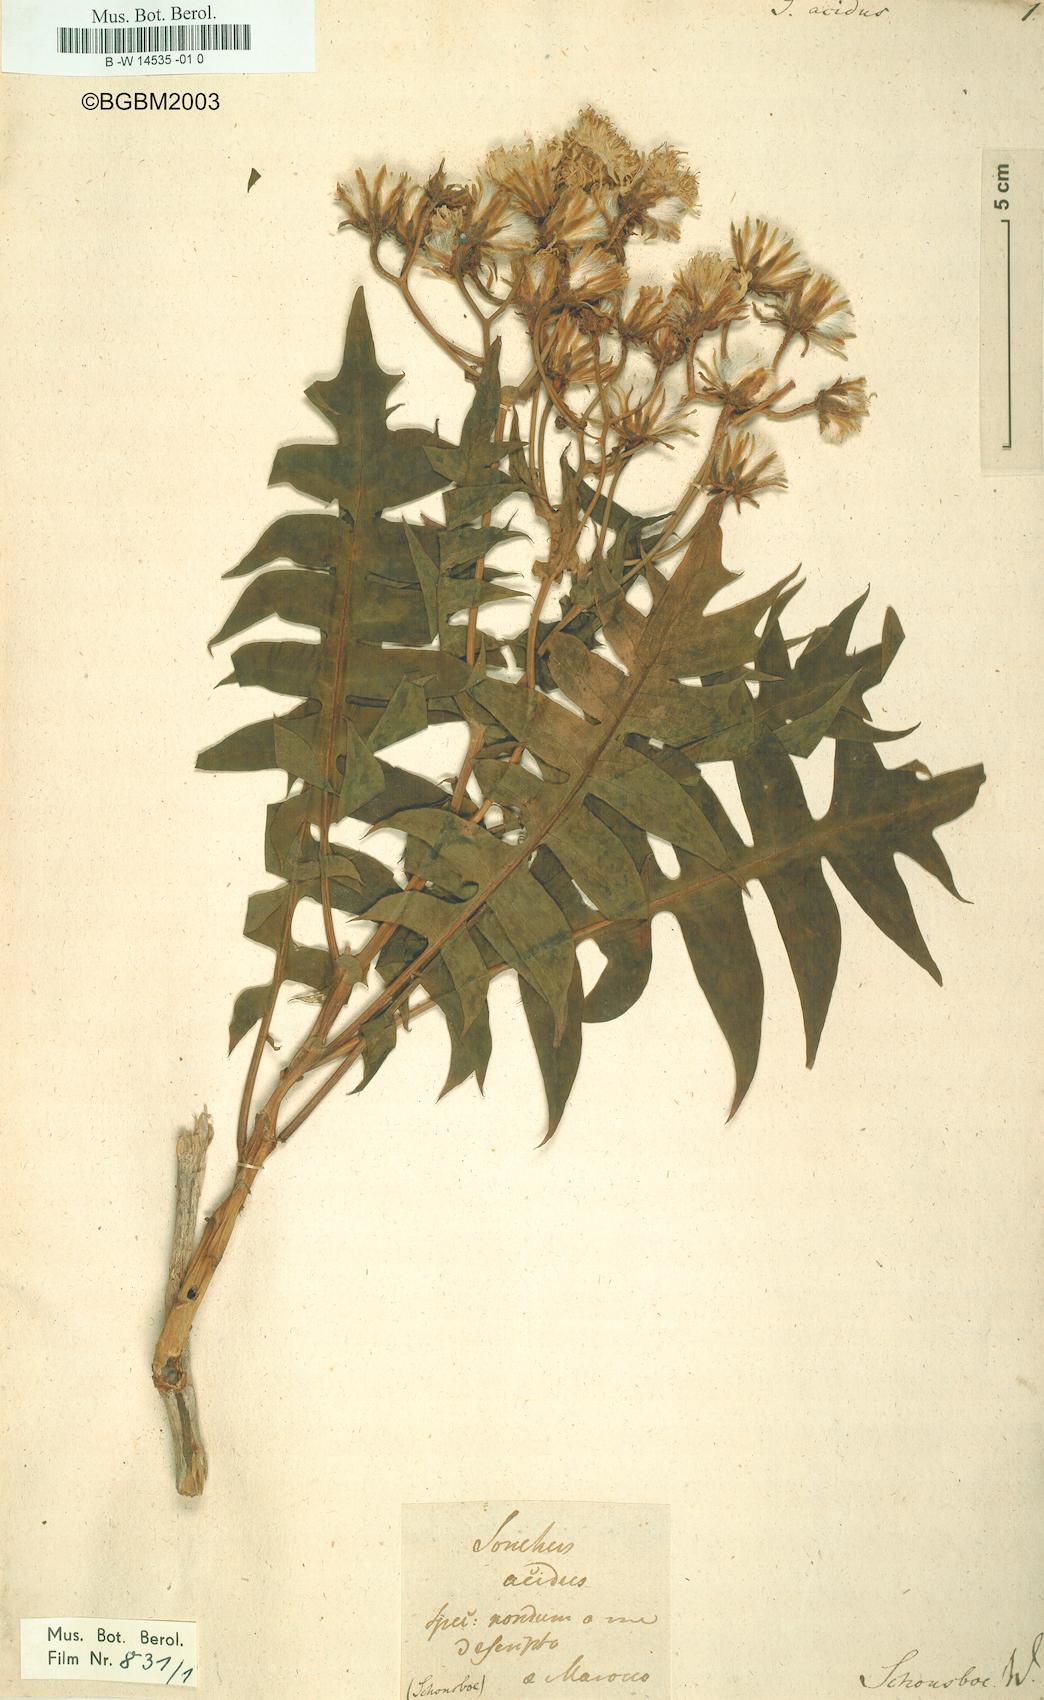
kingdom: Plantae
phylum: Tracheophyta
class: Magnoliopsida
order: Asterales
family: Asteraceae
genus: Sonchus
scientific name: Sonchus pinnatifidus
